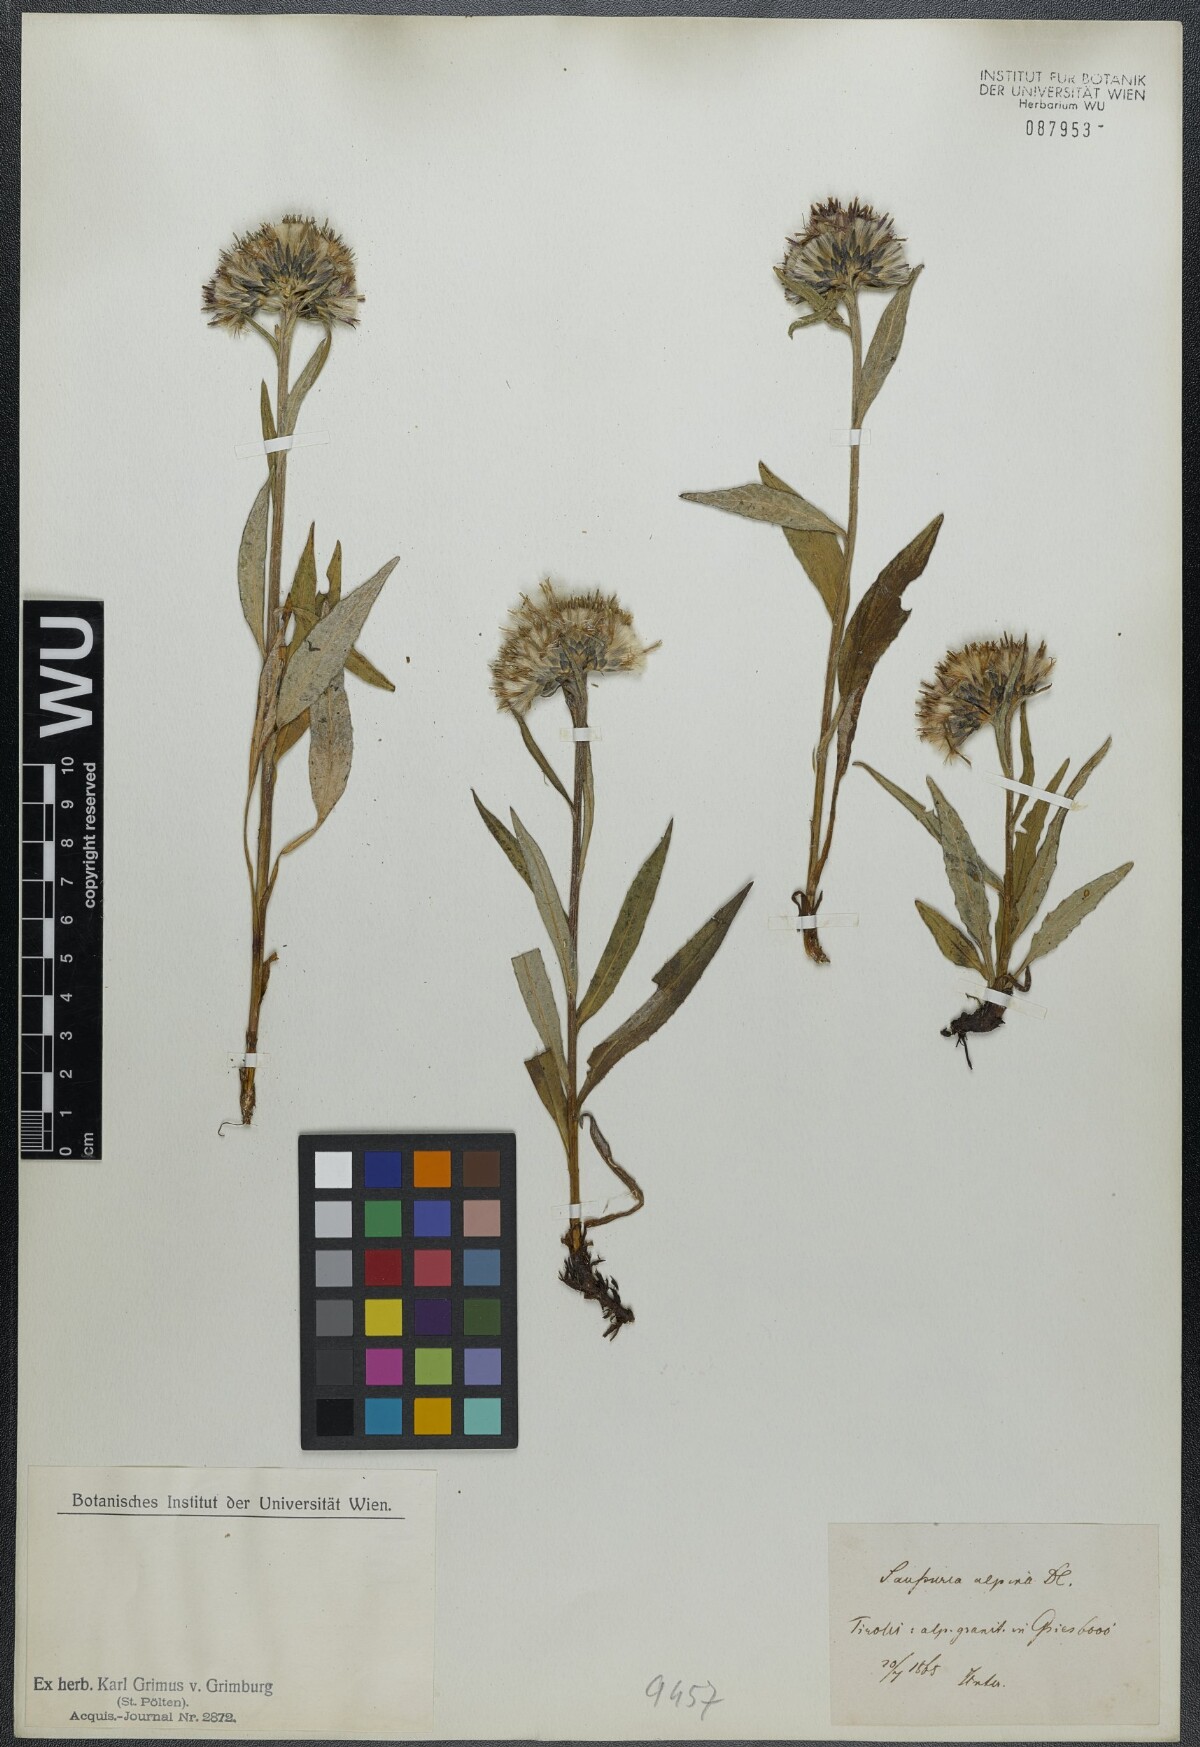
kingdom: Plantae
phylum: Tracheophyta
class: Magnoliopsida
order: Asterales
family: Asteraceae
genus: Saussurea
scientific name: Saussurea alpina
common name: Alpine saw-wort
